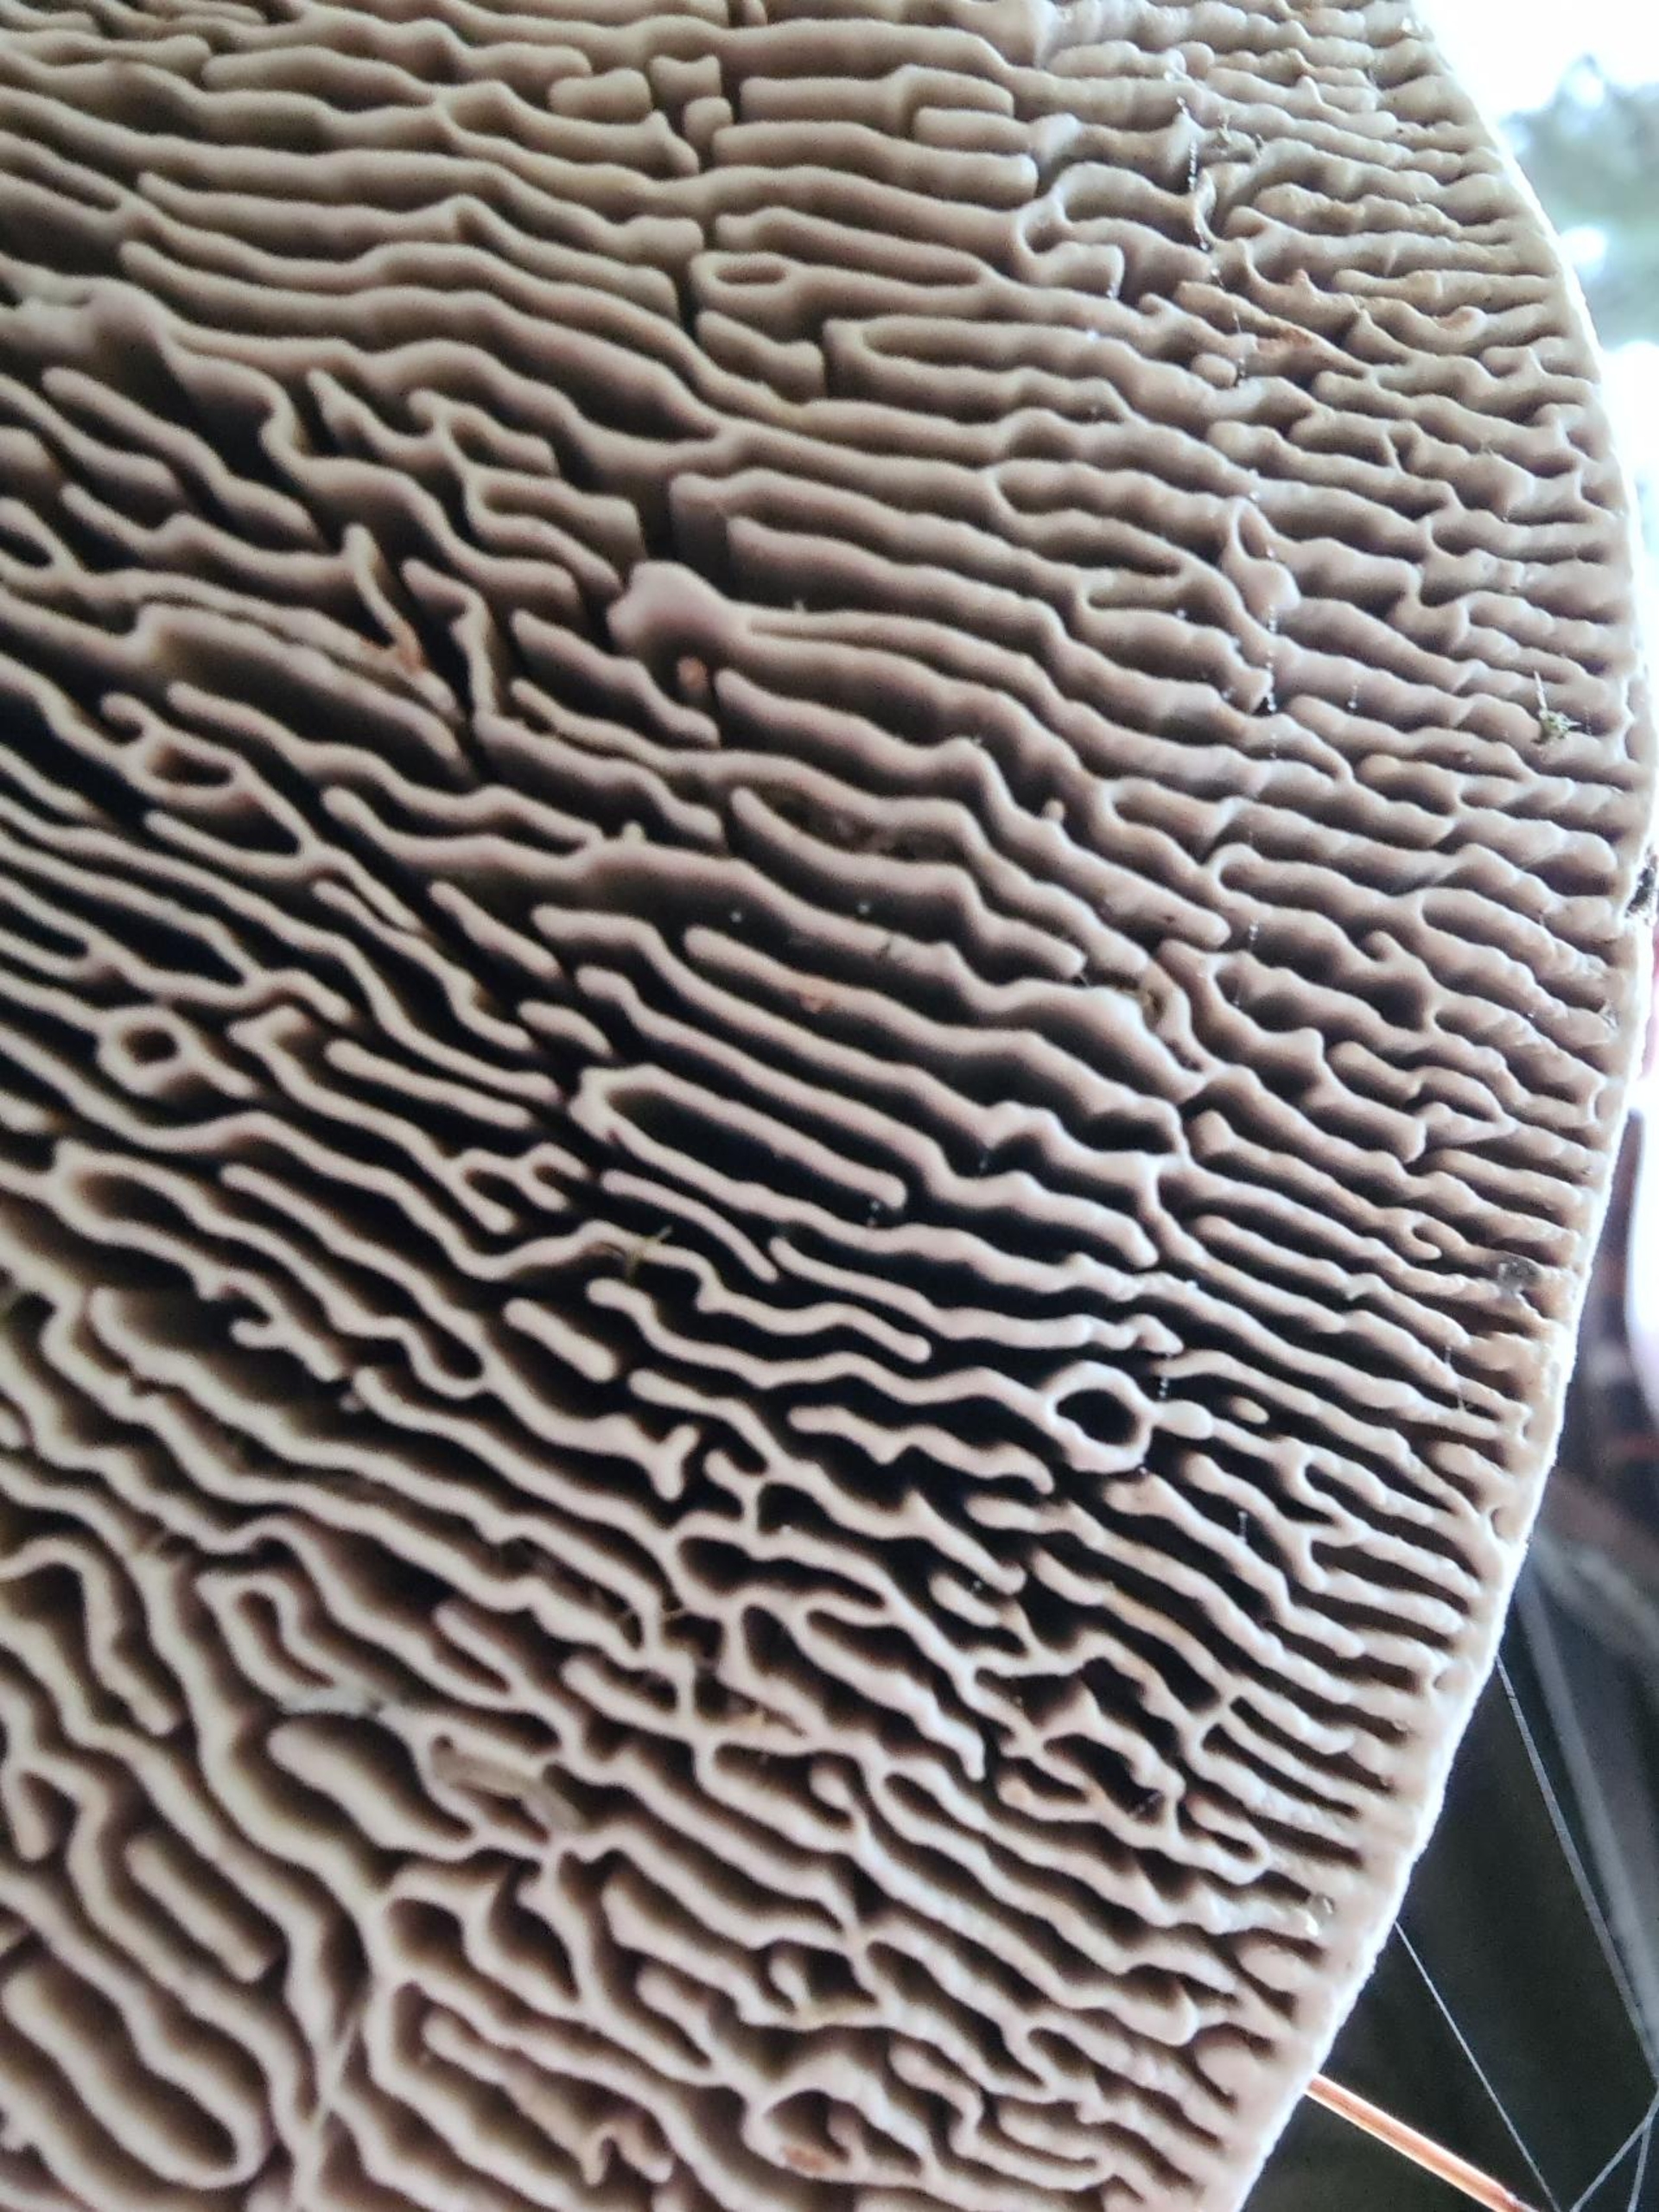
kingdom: Fungi
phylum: Basidiomycota
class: Agaricomycetes
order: Polyporales
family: Fomitopsidaceae
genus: Daedalea
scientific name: Daedalea quercina
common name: Ege-labyrintsvamp
